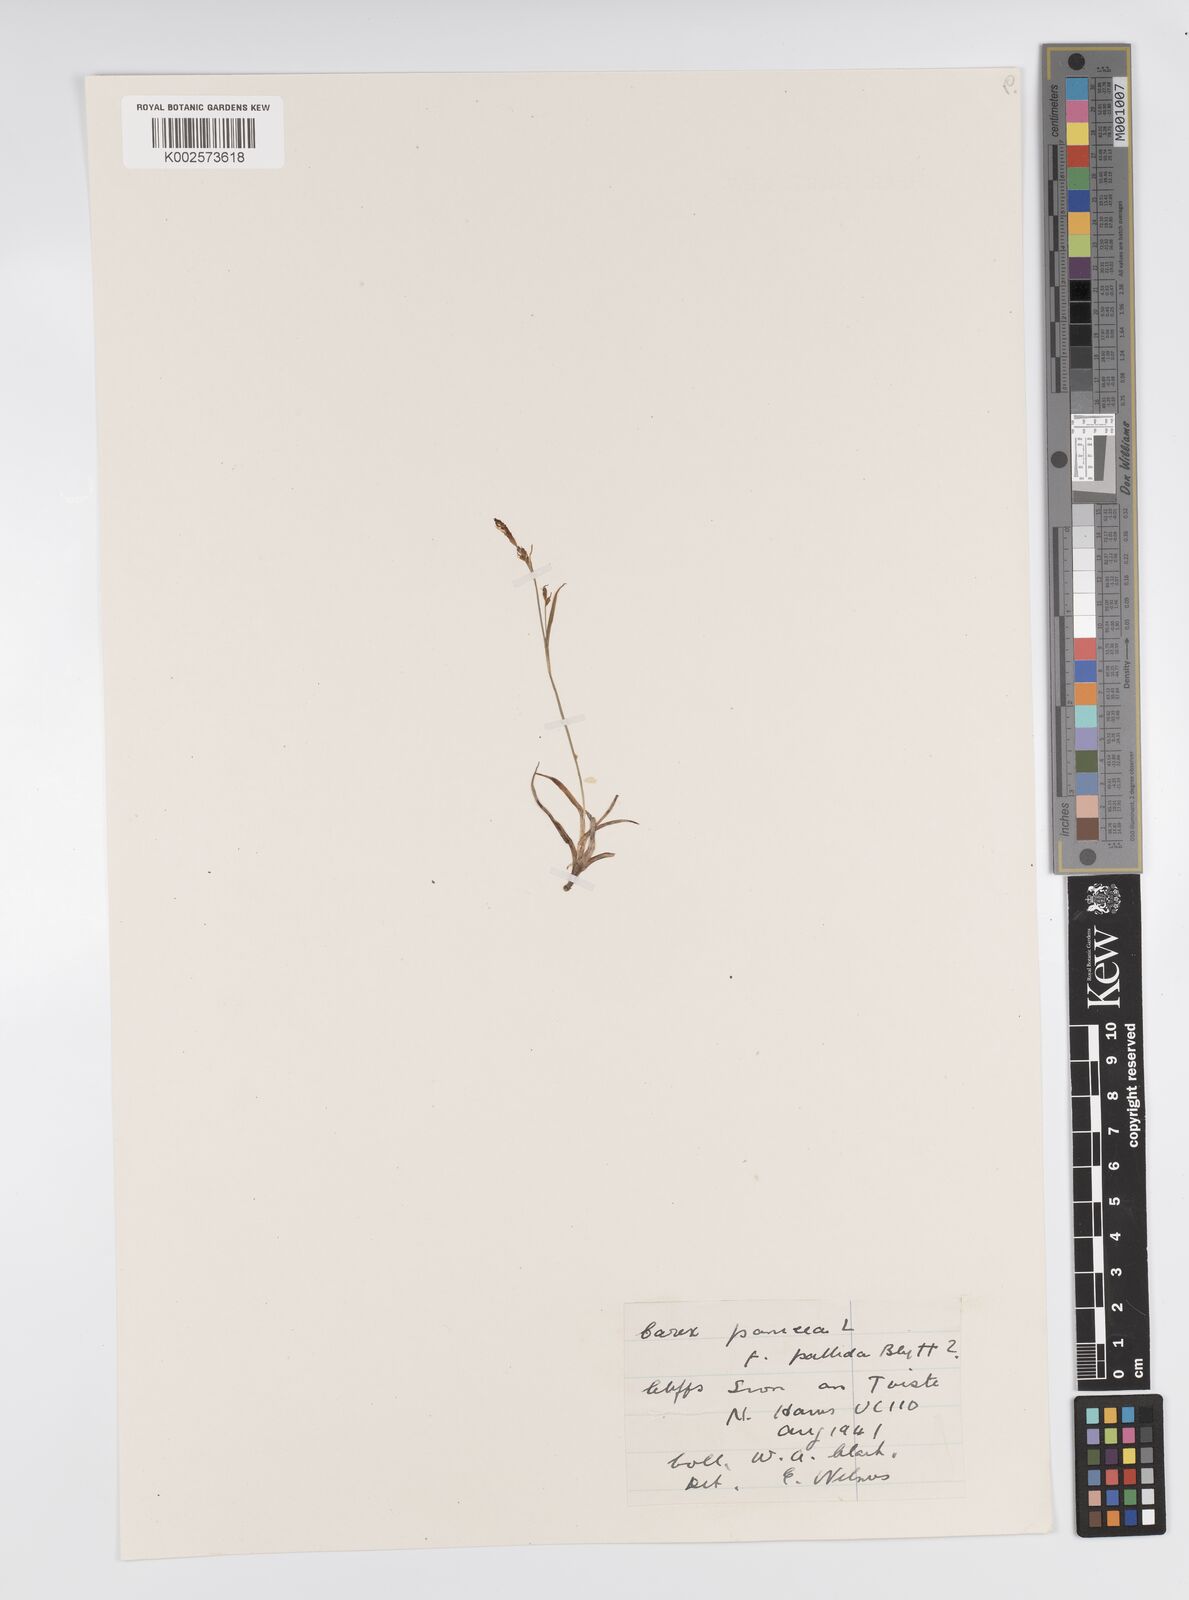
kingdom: Plantae
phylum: Tracheophyta
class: Liliopsida
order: Poales
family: Cyperaceae
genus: Carex
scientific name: Carex panicea
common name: Carnation sedge
